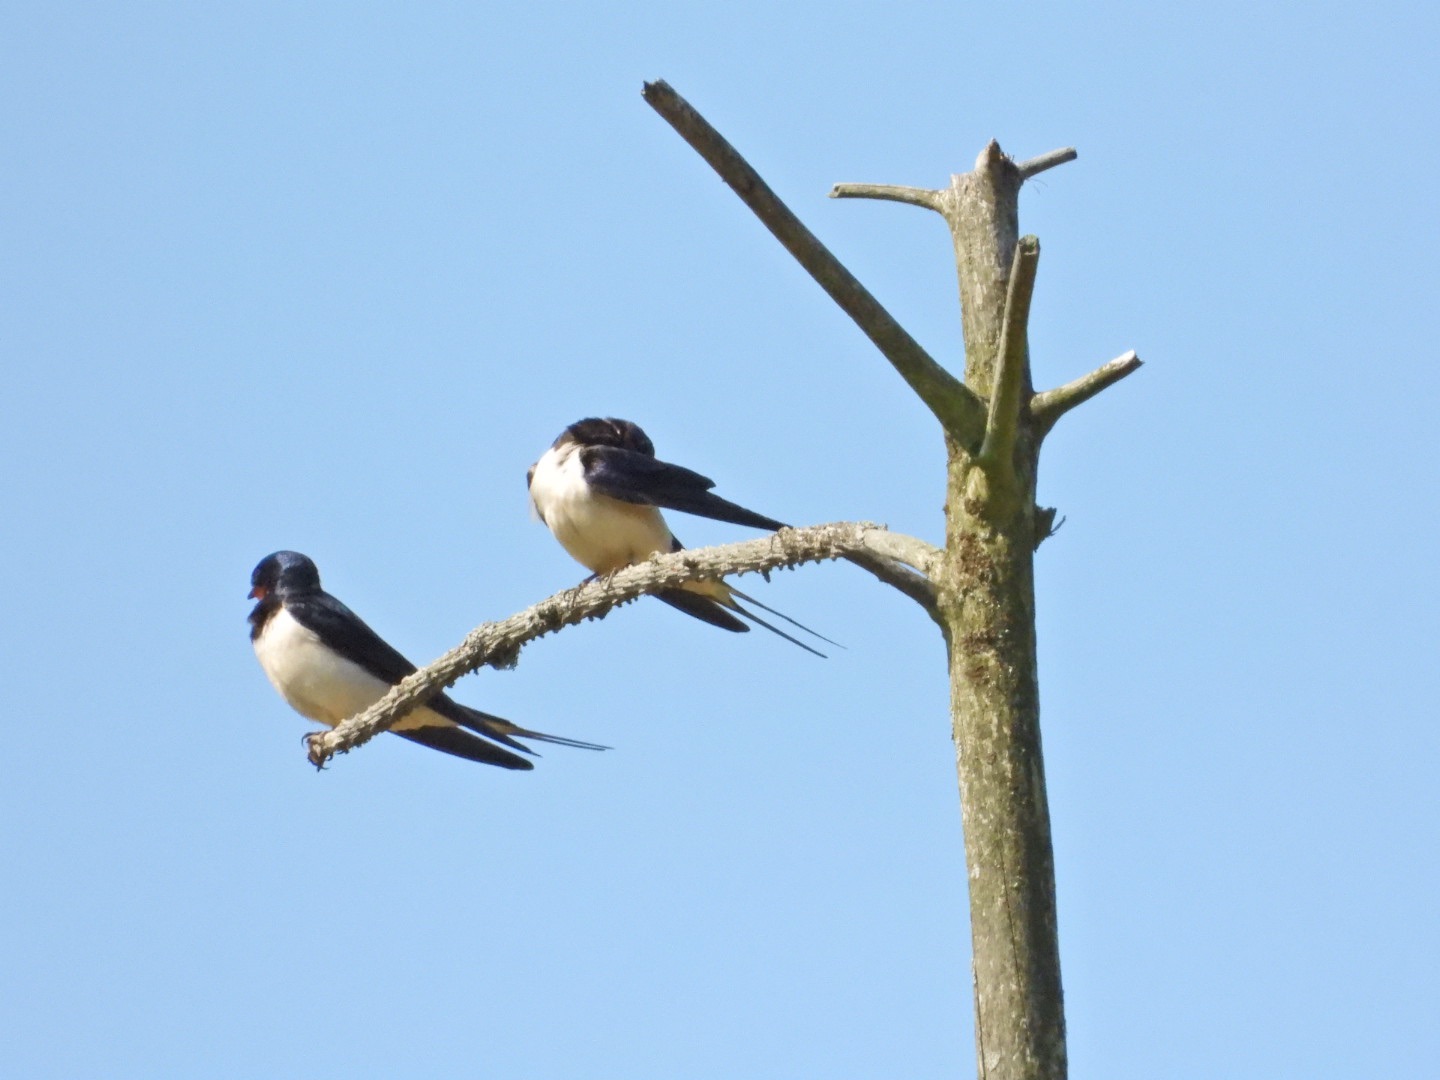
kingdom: Animalia
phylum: Chordata
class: Aves
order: Passeriformes
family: Hirundinidae
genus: Hirundo
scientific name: Hirundo rustica
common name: Landsvale
